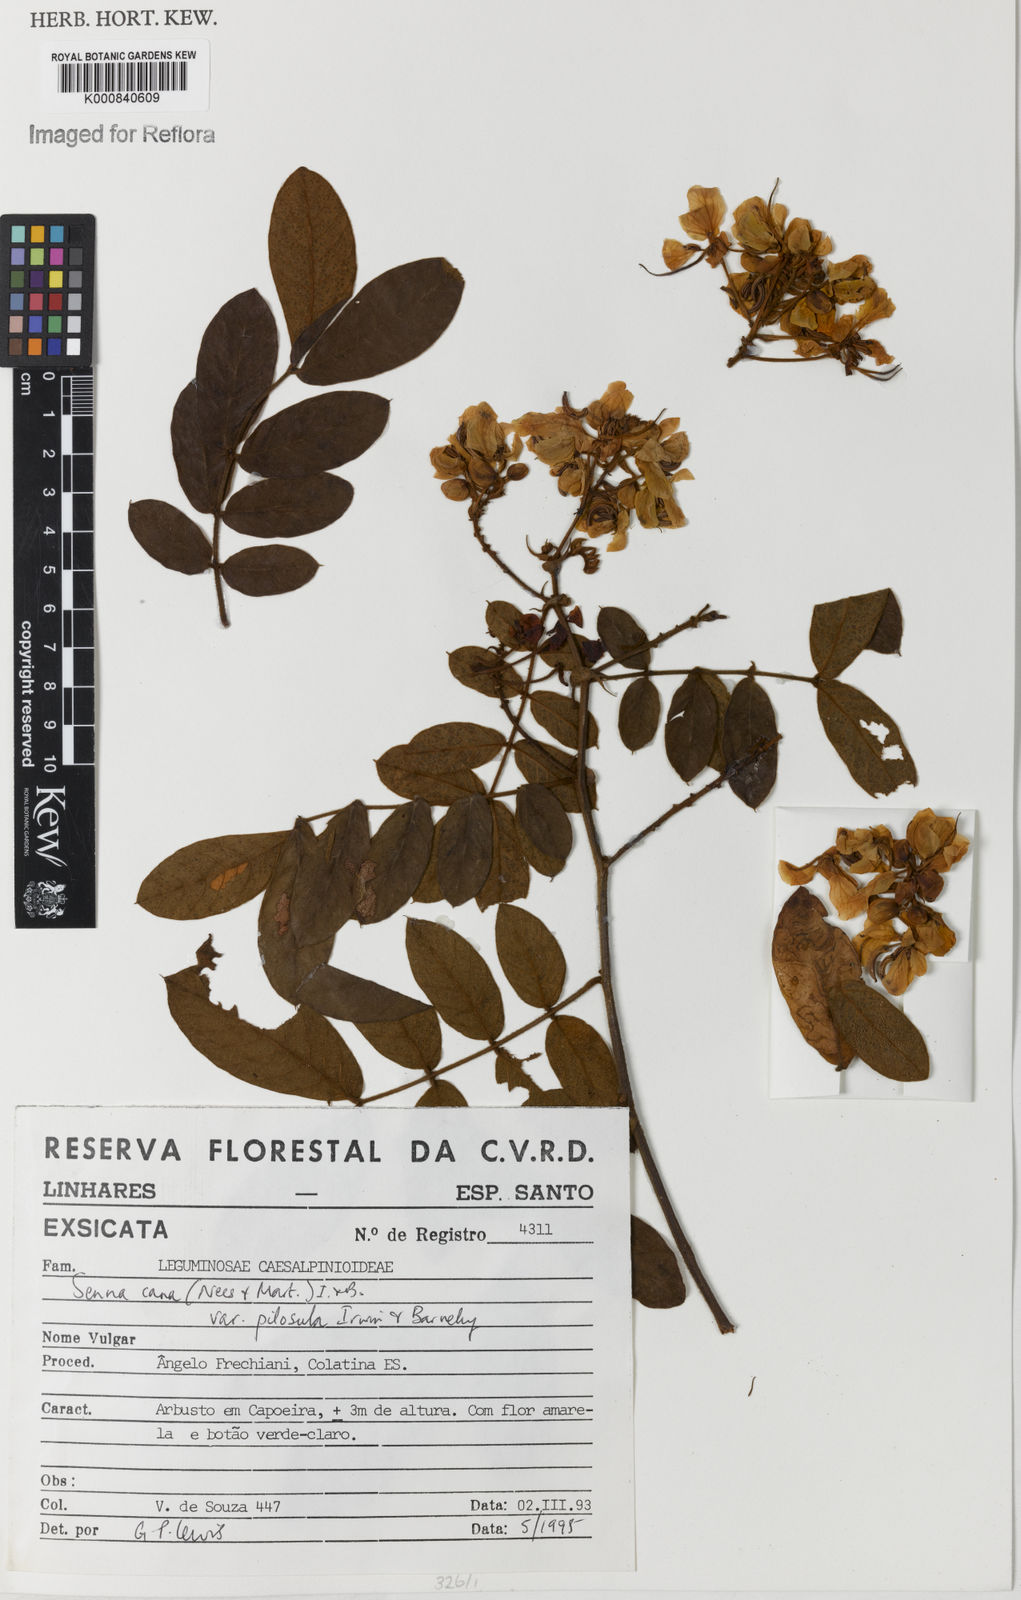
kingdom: Plantae
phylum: Tracheophyta
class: Magnoliopsida
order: Fabales
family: Fabaceae
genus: Senna
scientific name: Senna cana
